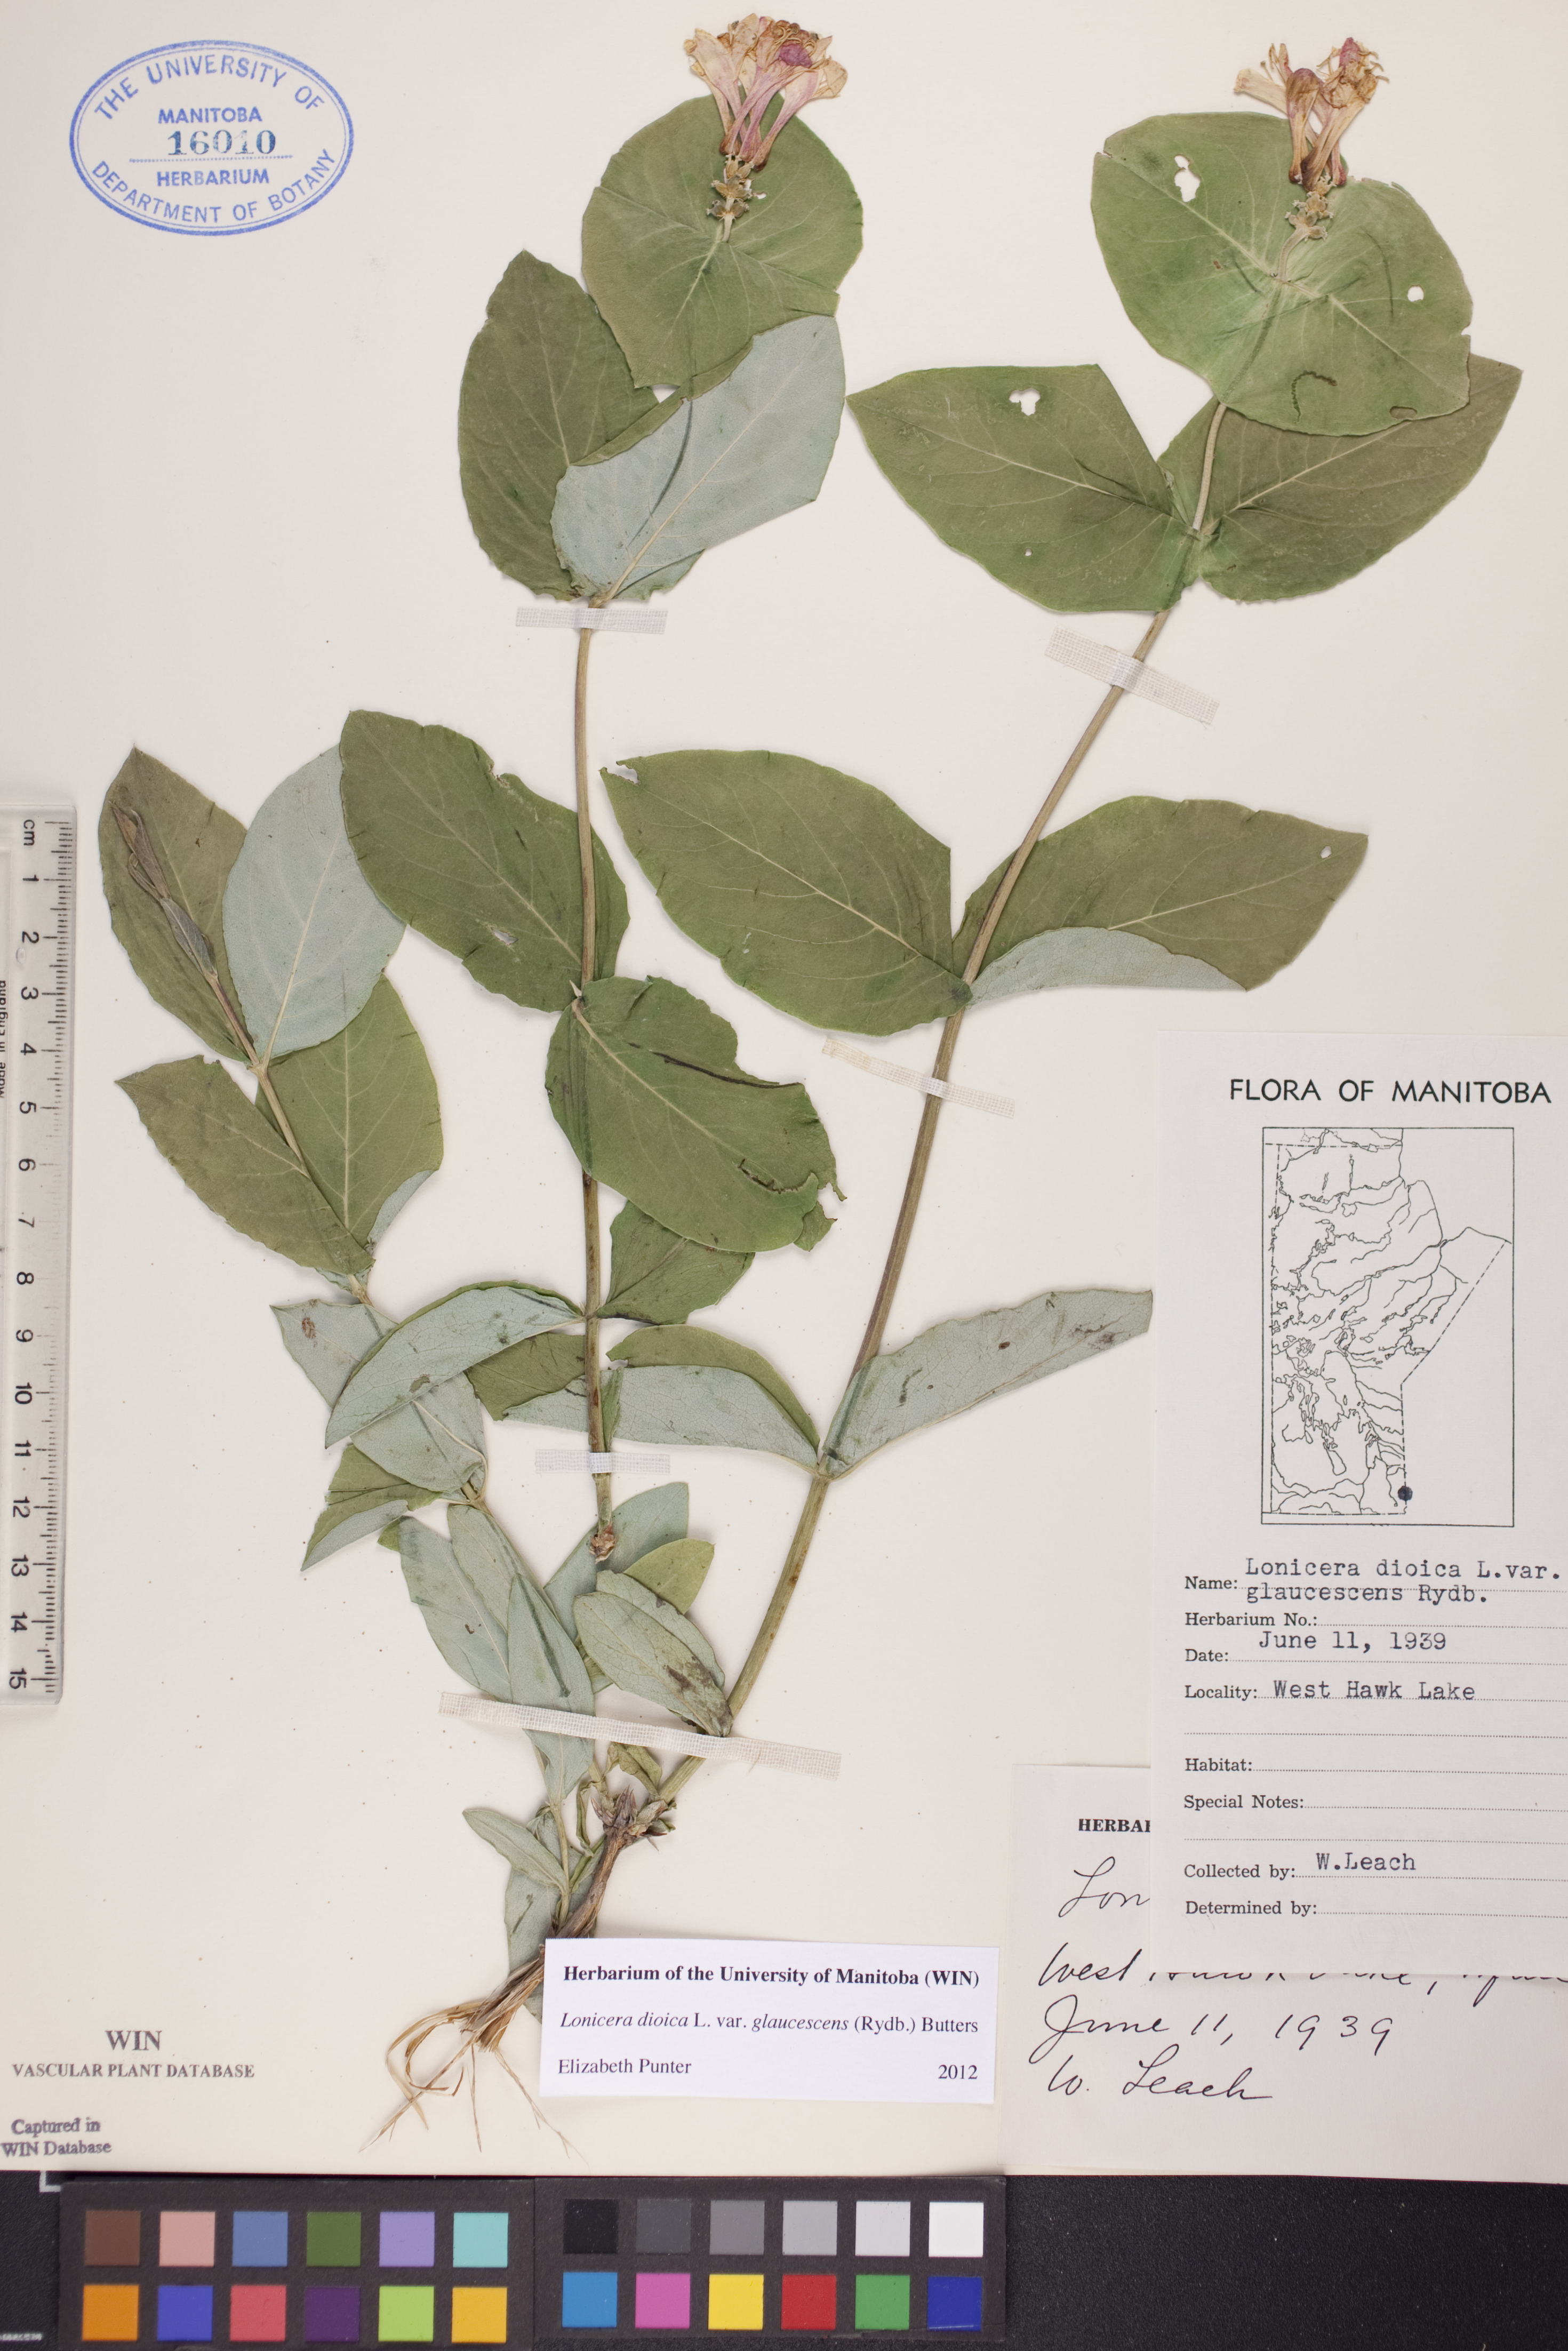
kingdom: Plantae
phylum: Tracheophyta
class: Magnoliopsida
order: Dipsacales
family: Caprifoliaceae
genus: Lonicera
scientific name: Lonicera dioica
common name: Limber honeysuckle
